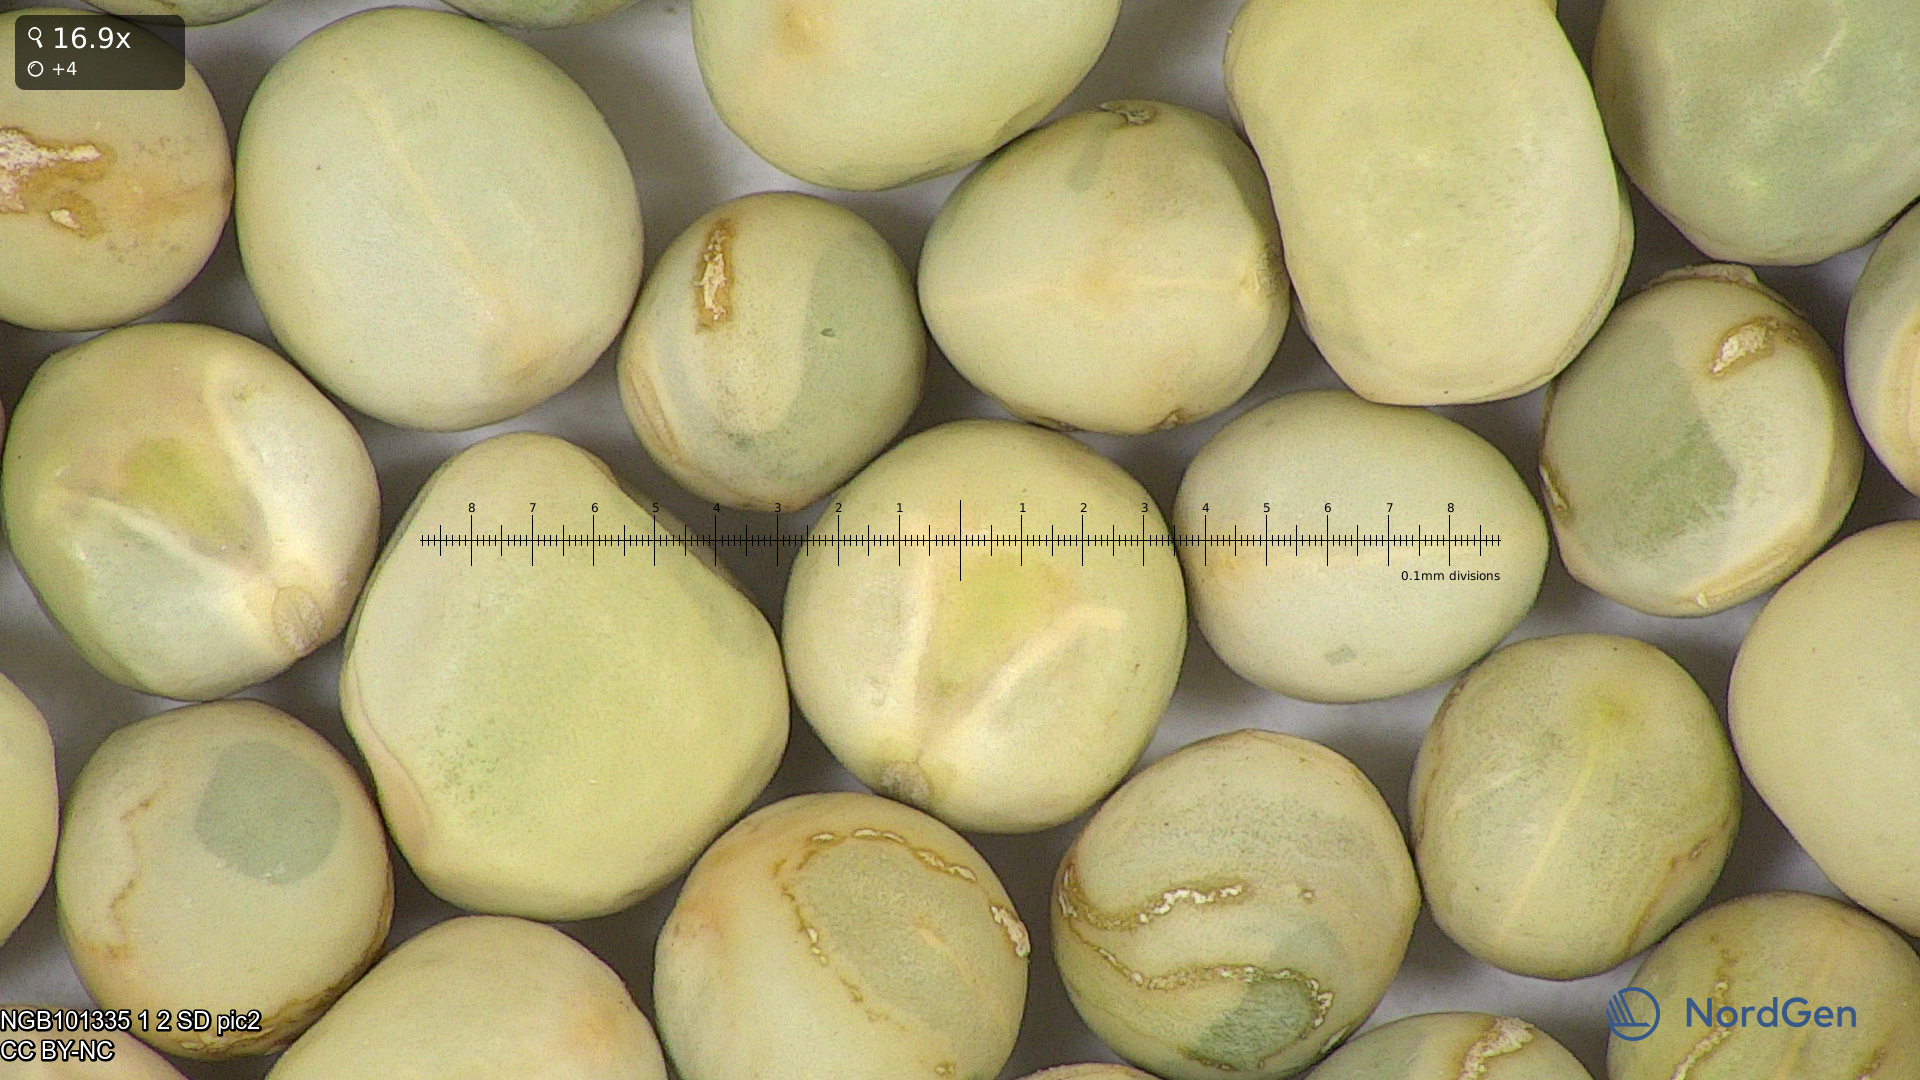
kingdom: Plantae
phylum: Tracheophyta
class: Magnoliopsida
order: Fabales
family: Fabaceae
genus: Lathyrus
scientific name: Lathyrus oleraceus
